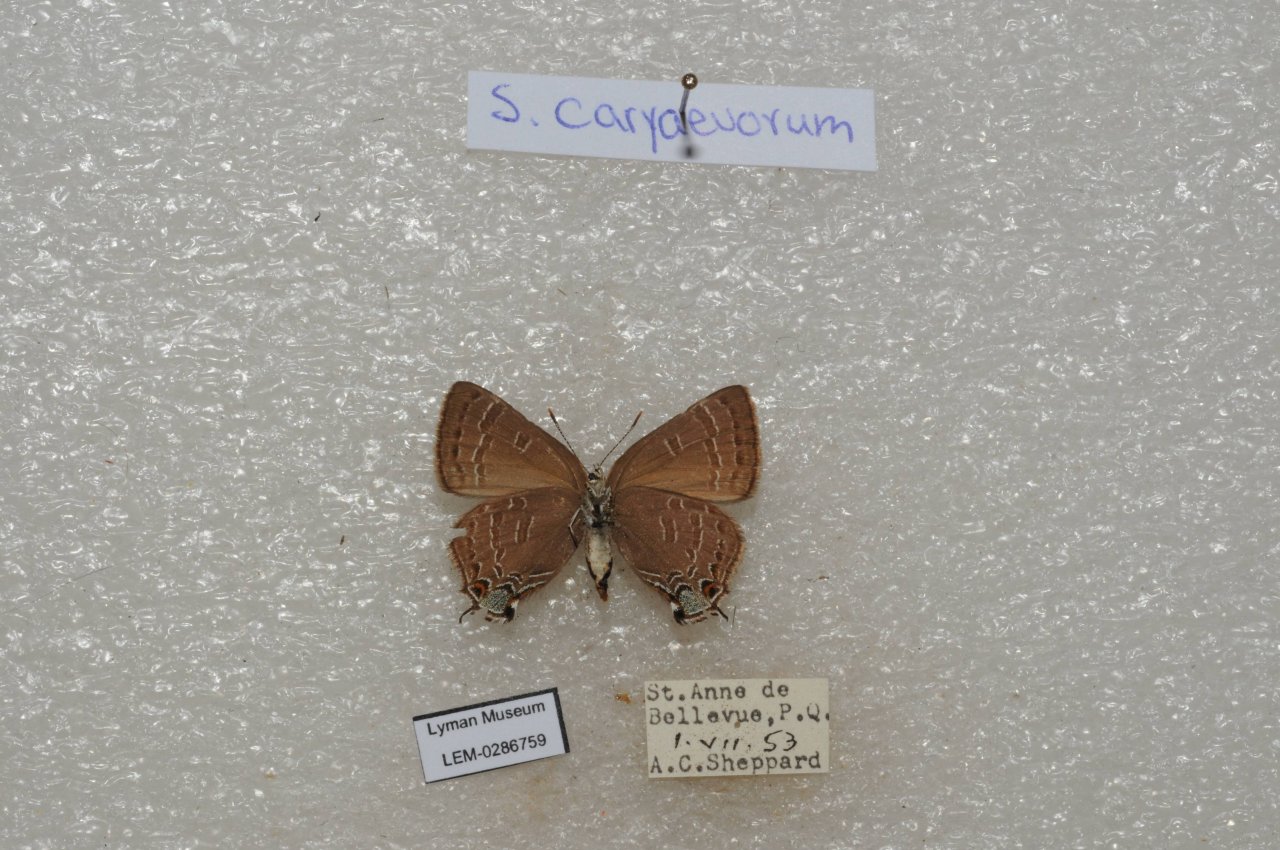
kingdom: Animalia
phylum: Arthropoda
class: Insecta
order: Lepidoptera
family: Lycaenidae
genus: Strymon
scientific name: Strymon caryaevorus
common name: Hickory Hairstreak
